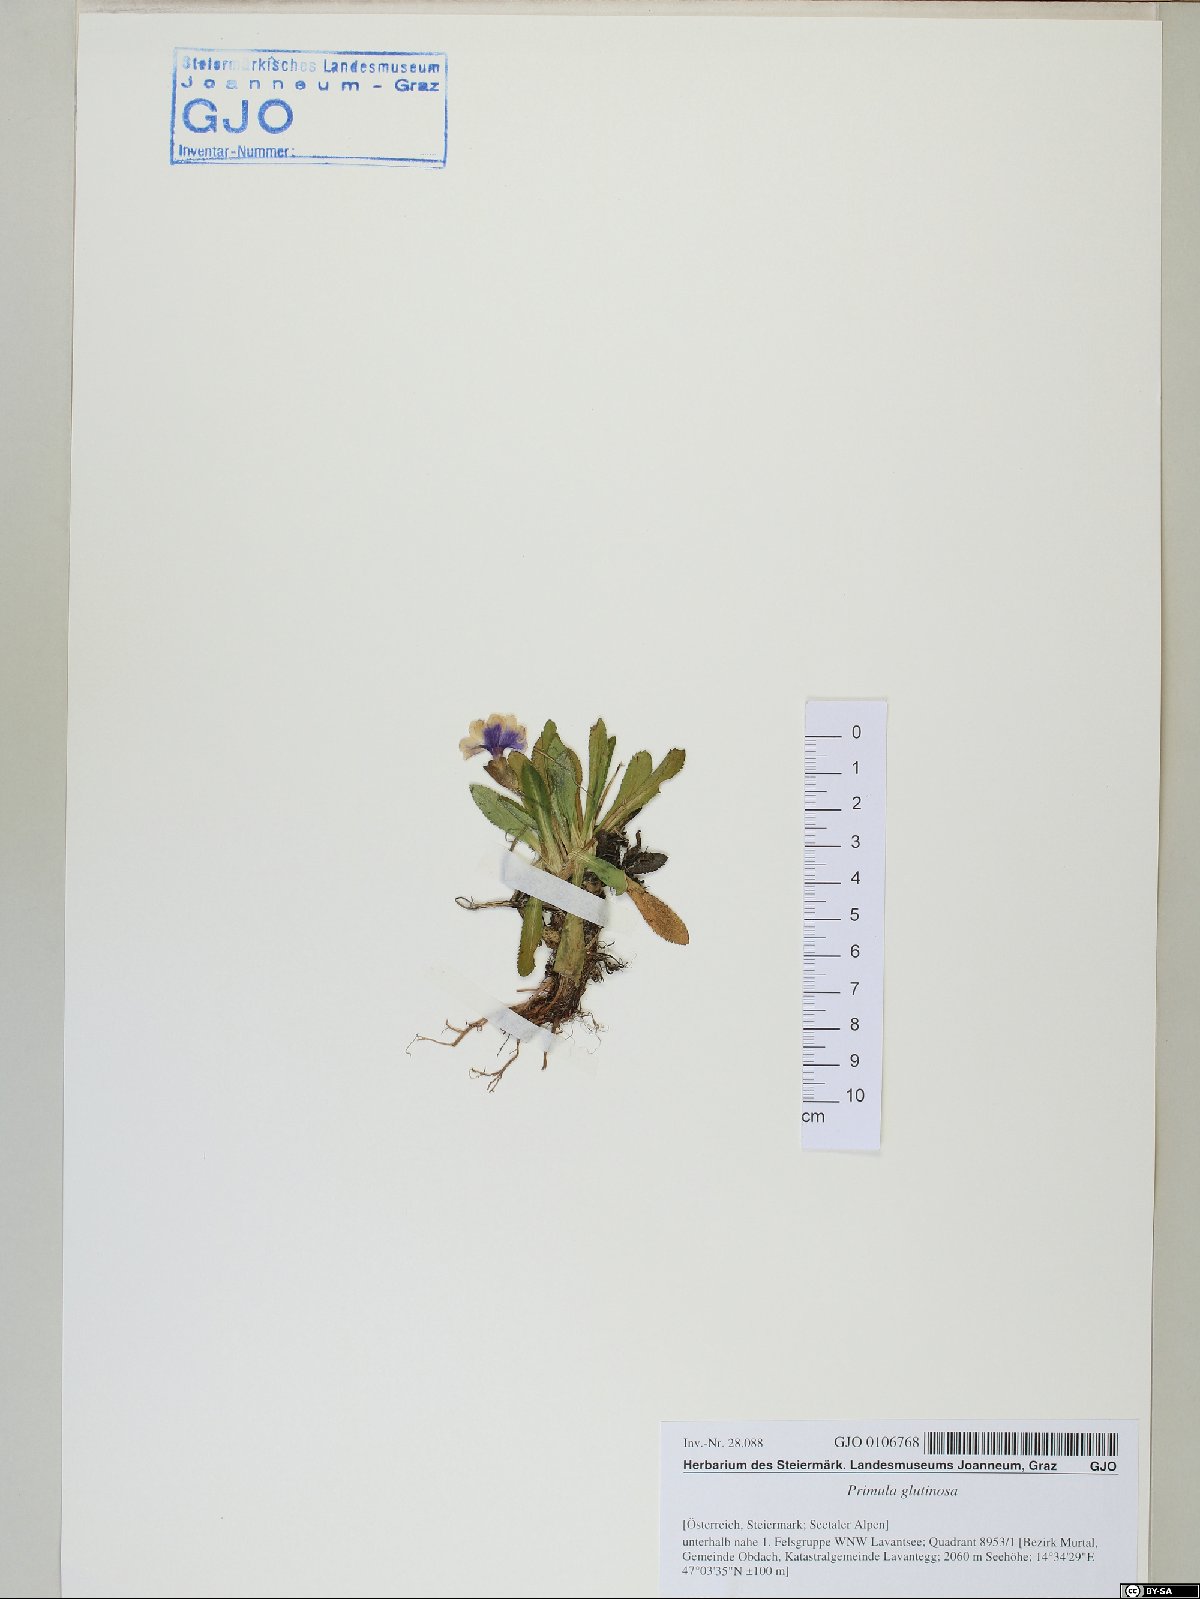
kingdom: Plantae
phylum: Tracheophyta
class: Magnoliopsida
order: Ericales
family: Primulaceae
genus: Primula
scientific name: Primula glutinosa
